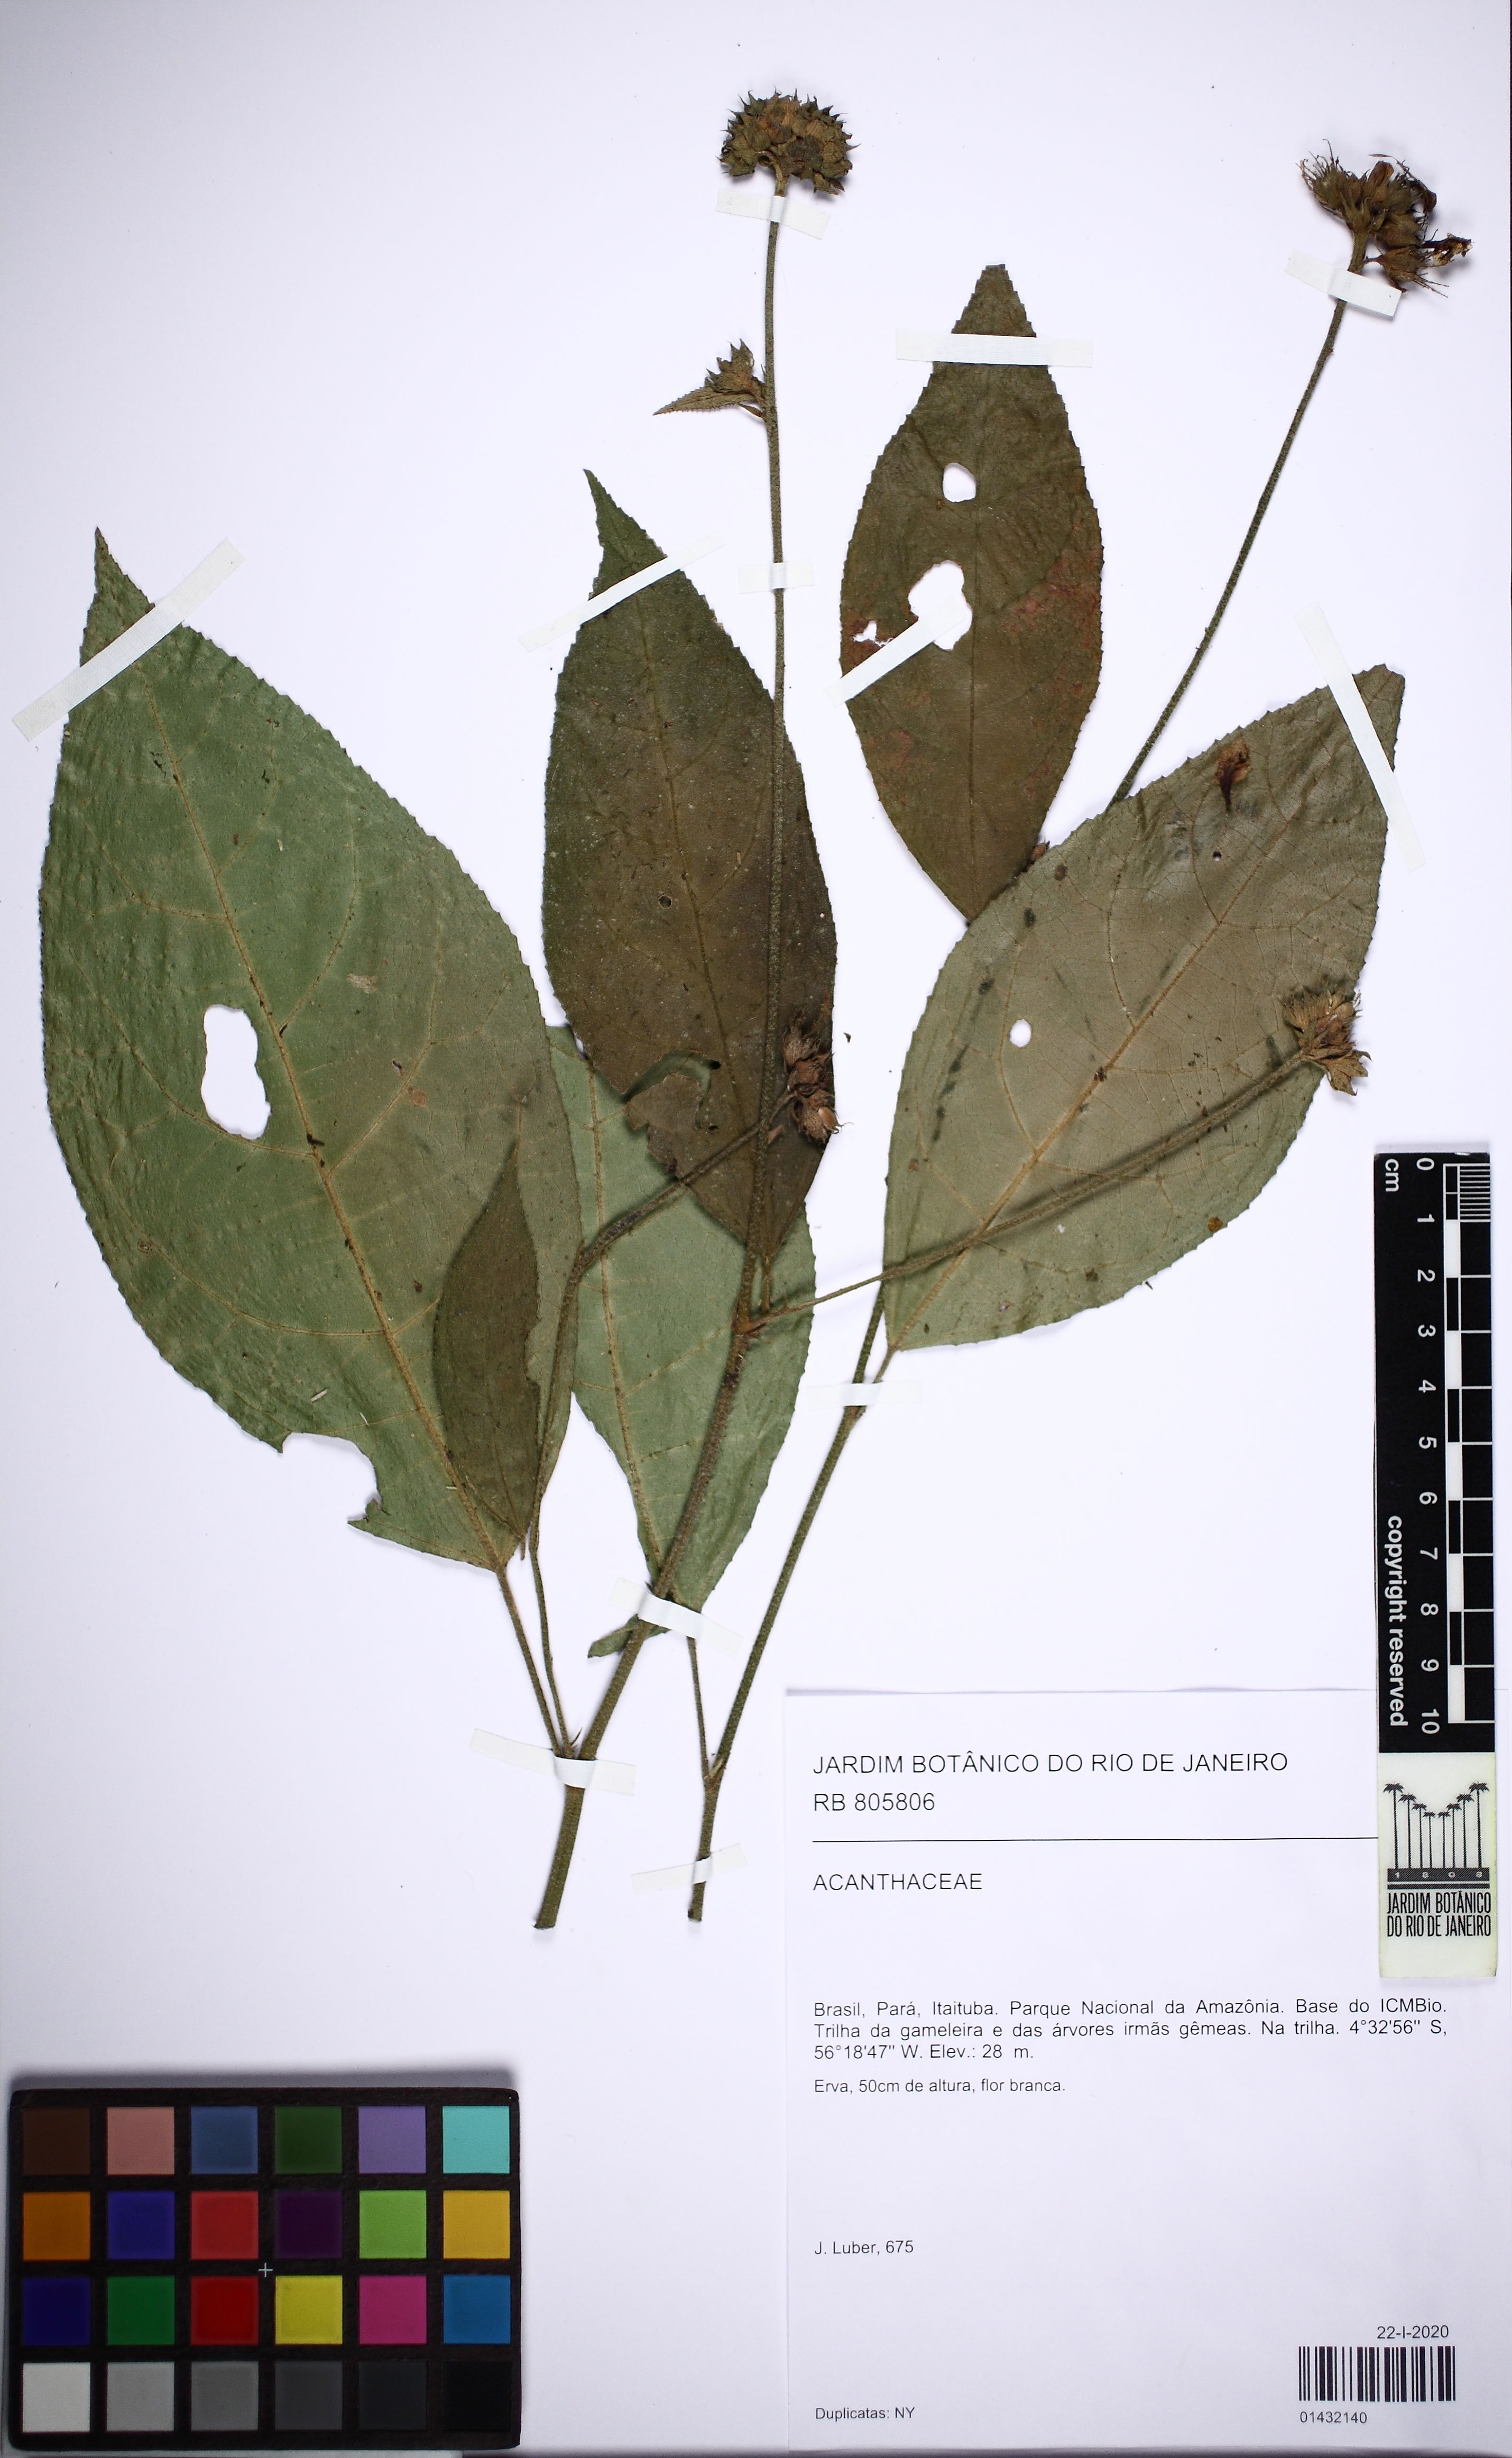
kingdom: Plantae
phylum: Tracheophyta
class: Magnoliopsida
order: Lamiales
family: Verbenaceae
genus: Lippia
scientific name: Lippia
